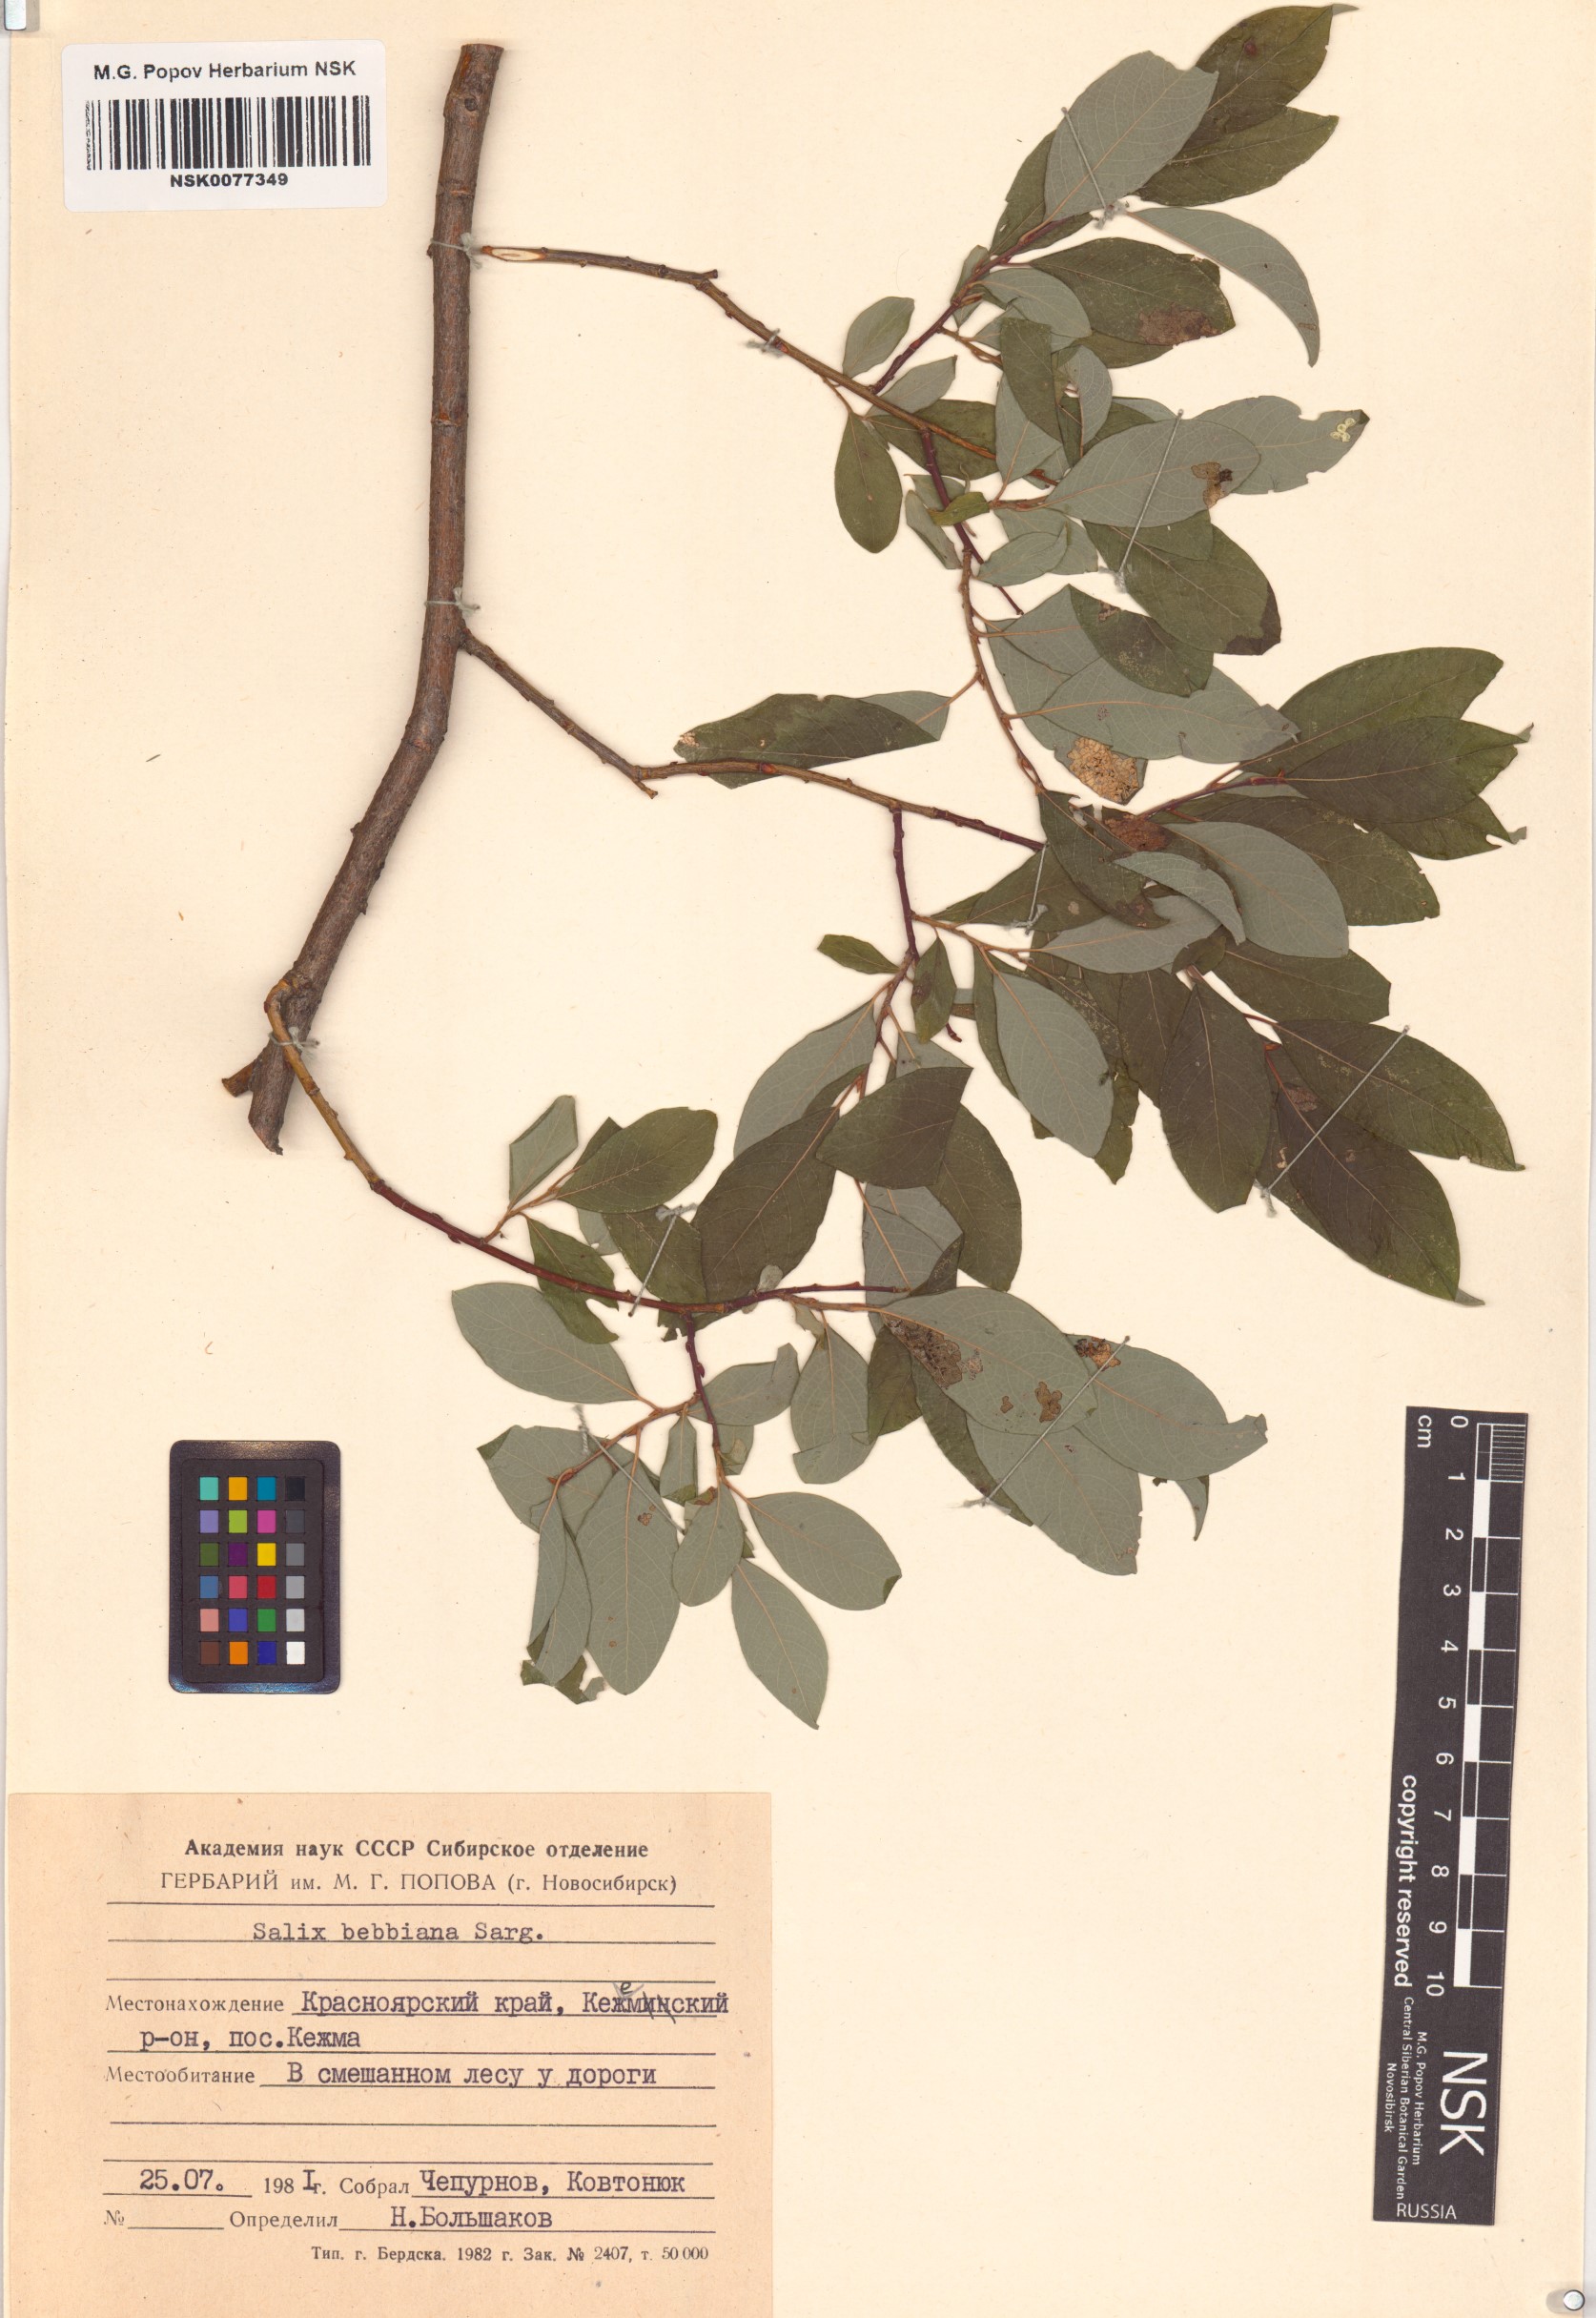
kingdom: Plantae
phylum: Tracheophyta
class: Magnoliopsida
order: Malpighiales
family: Salicaceae
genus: Salix
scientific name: Salix bebbiana
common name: Bebb's willow
